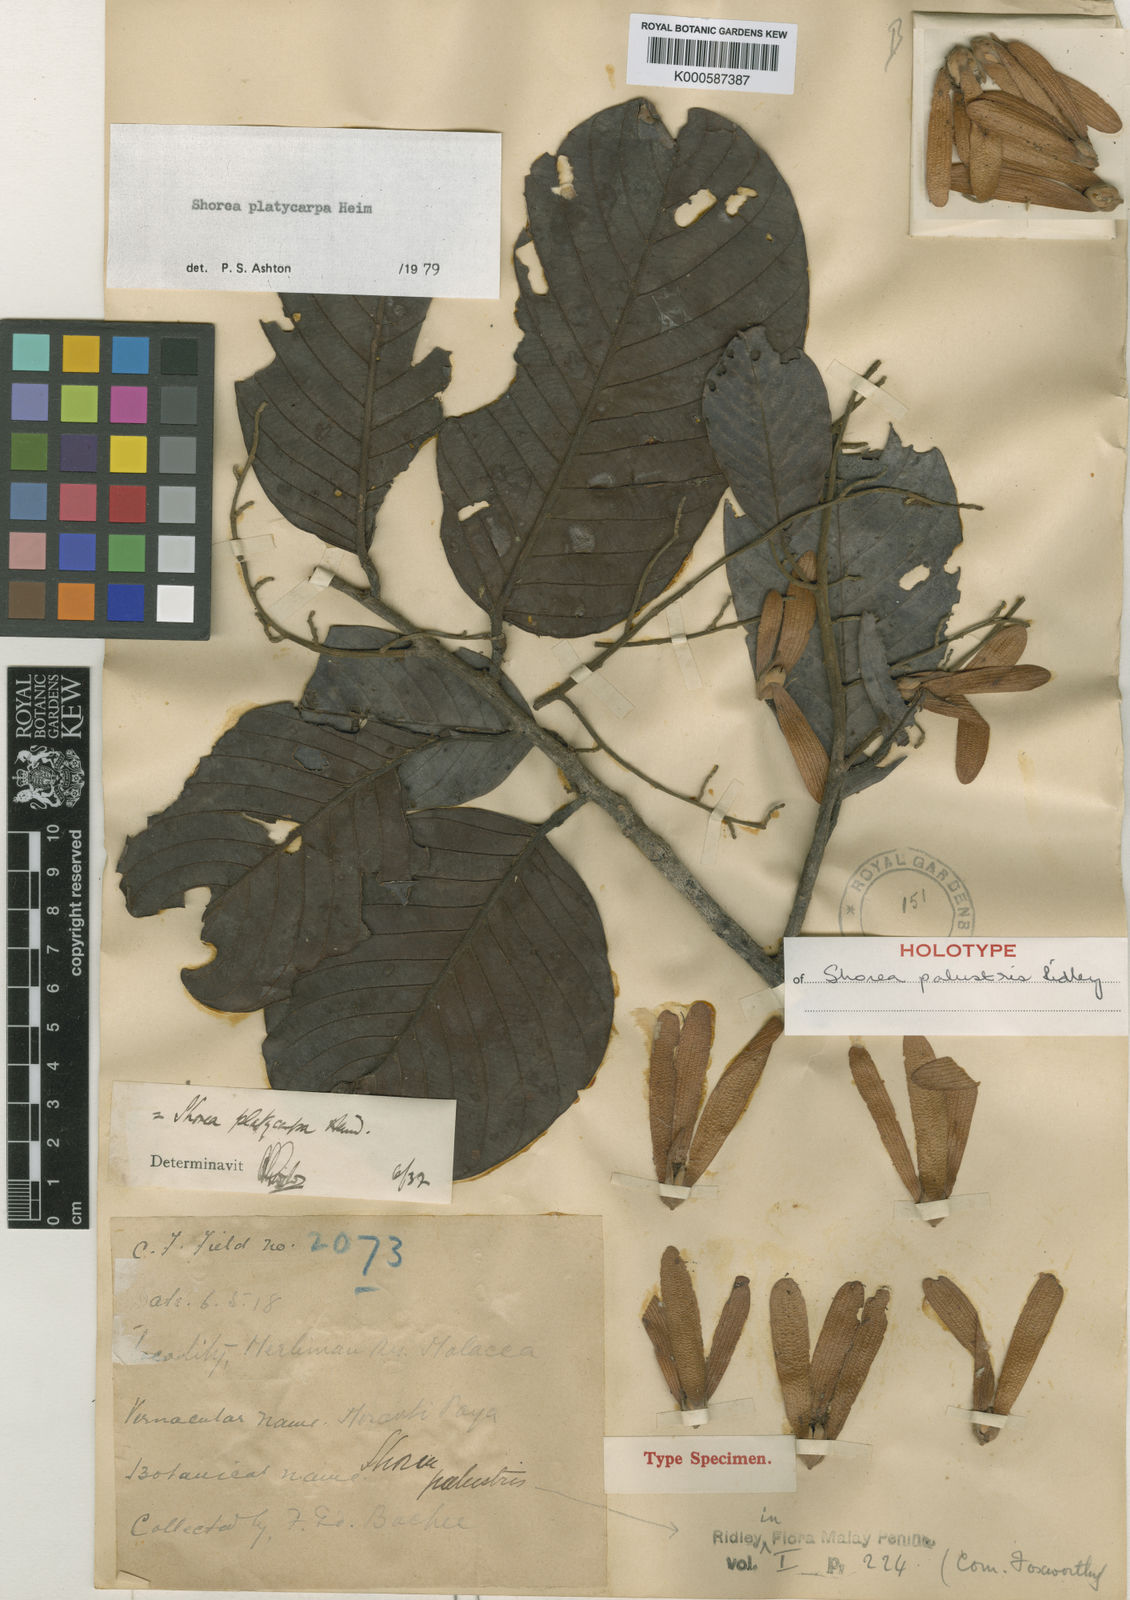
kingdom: Plantae
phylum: Tracheophyta
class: Magnoliopsida
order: Malvales
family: Dipterocarpaceae
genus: Shorea
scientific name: Shorea platycarpa
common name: Light red meranti
